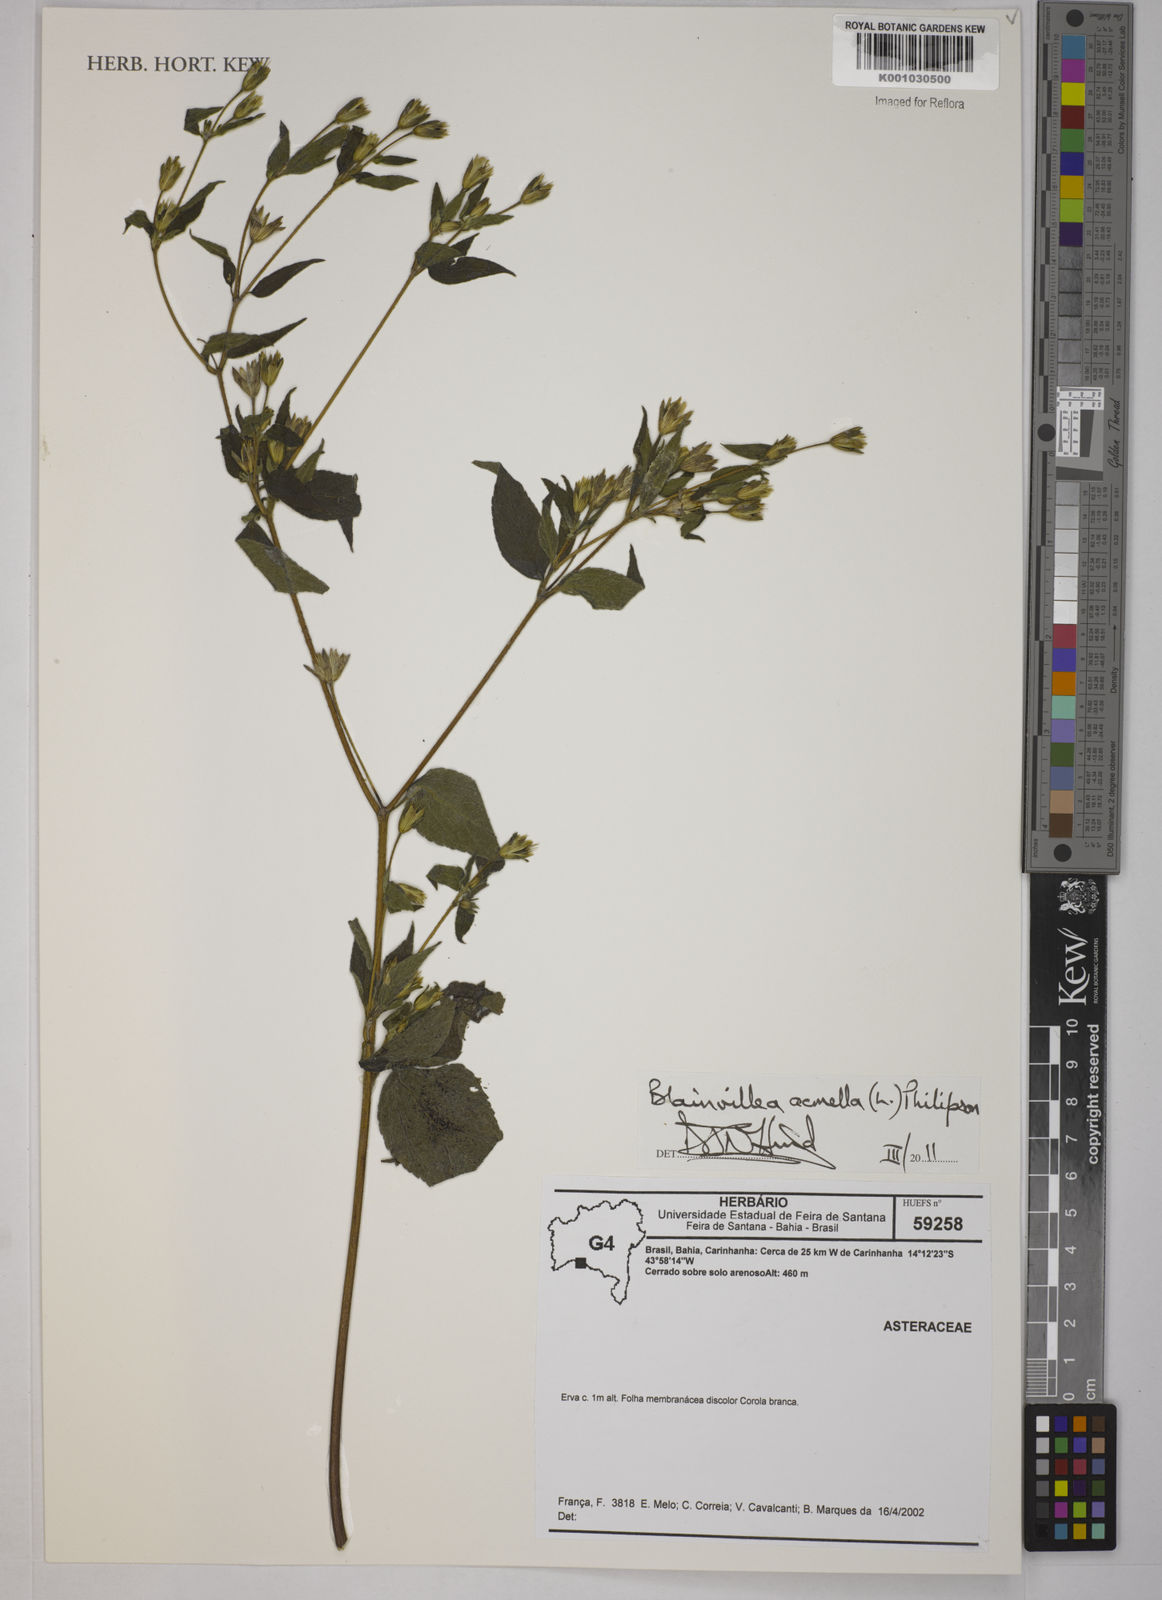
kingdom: Plantae
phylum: Tracheophyta
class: Magnoliopsida
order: Asterales
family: Asteraceae
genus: Blainvillea
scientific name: Blainvillea dichotoma
